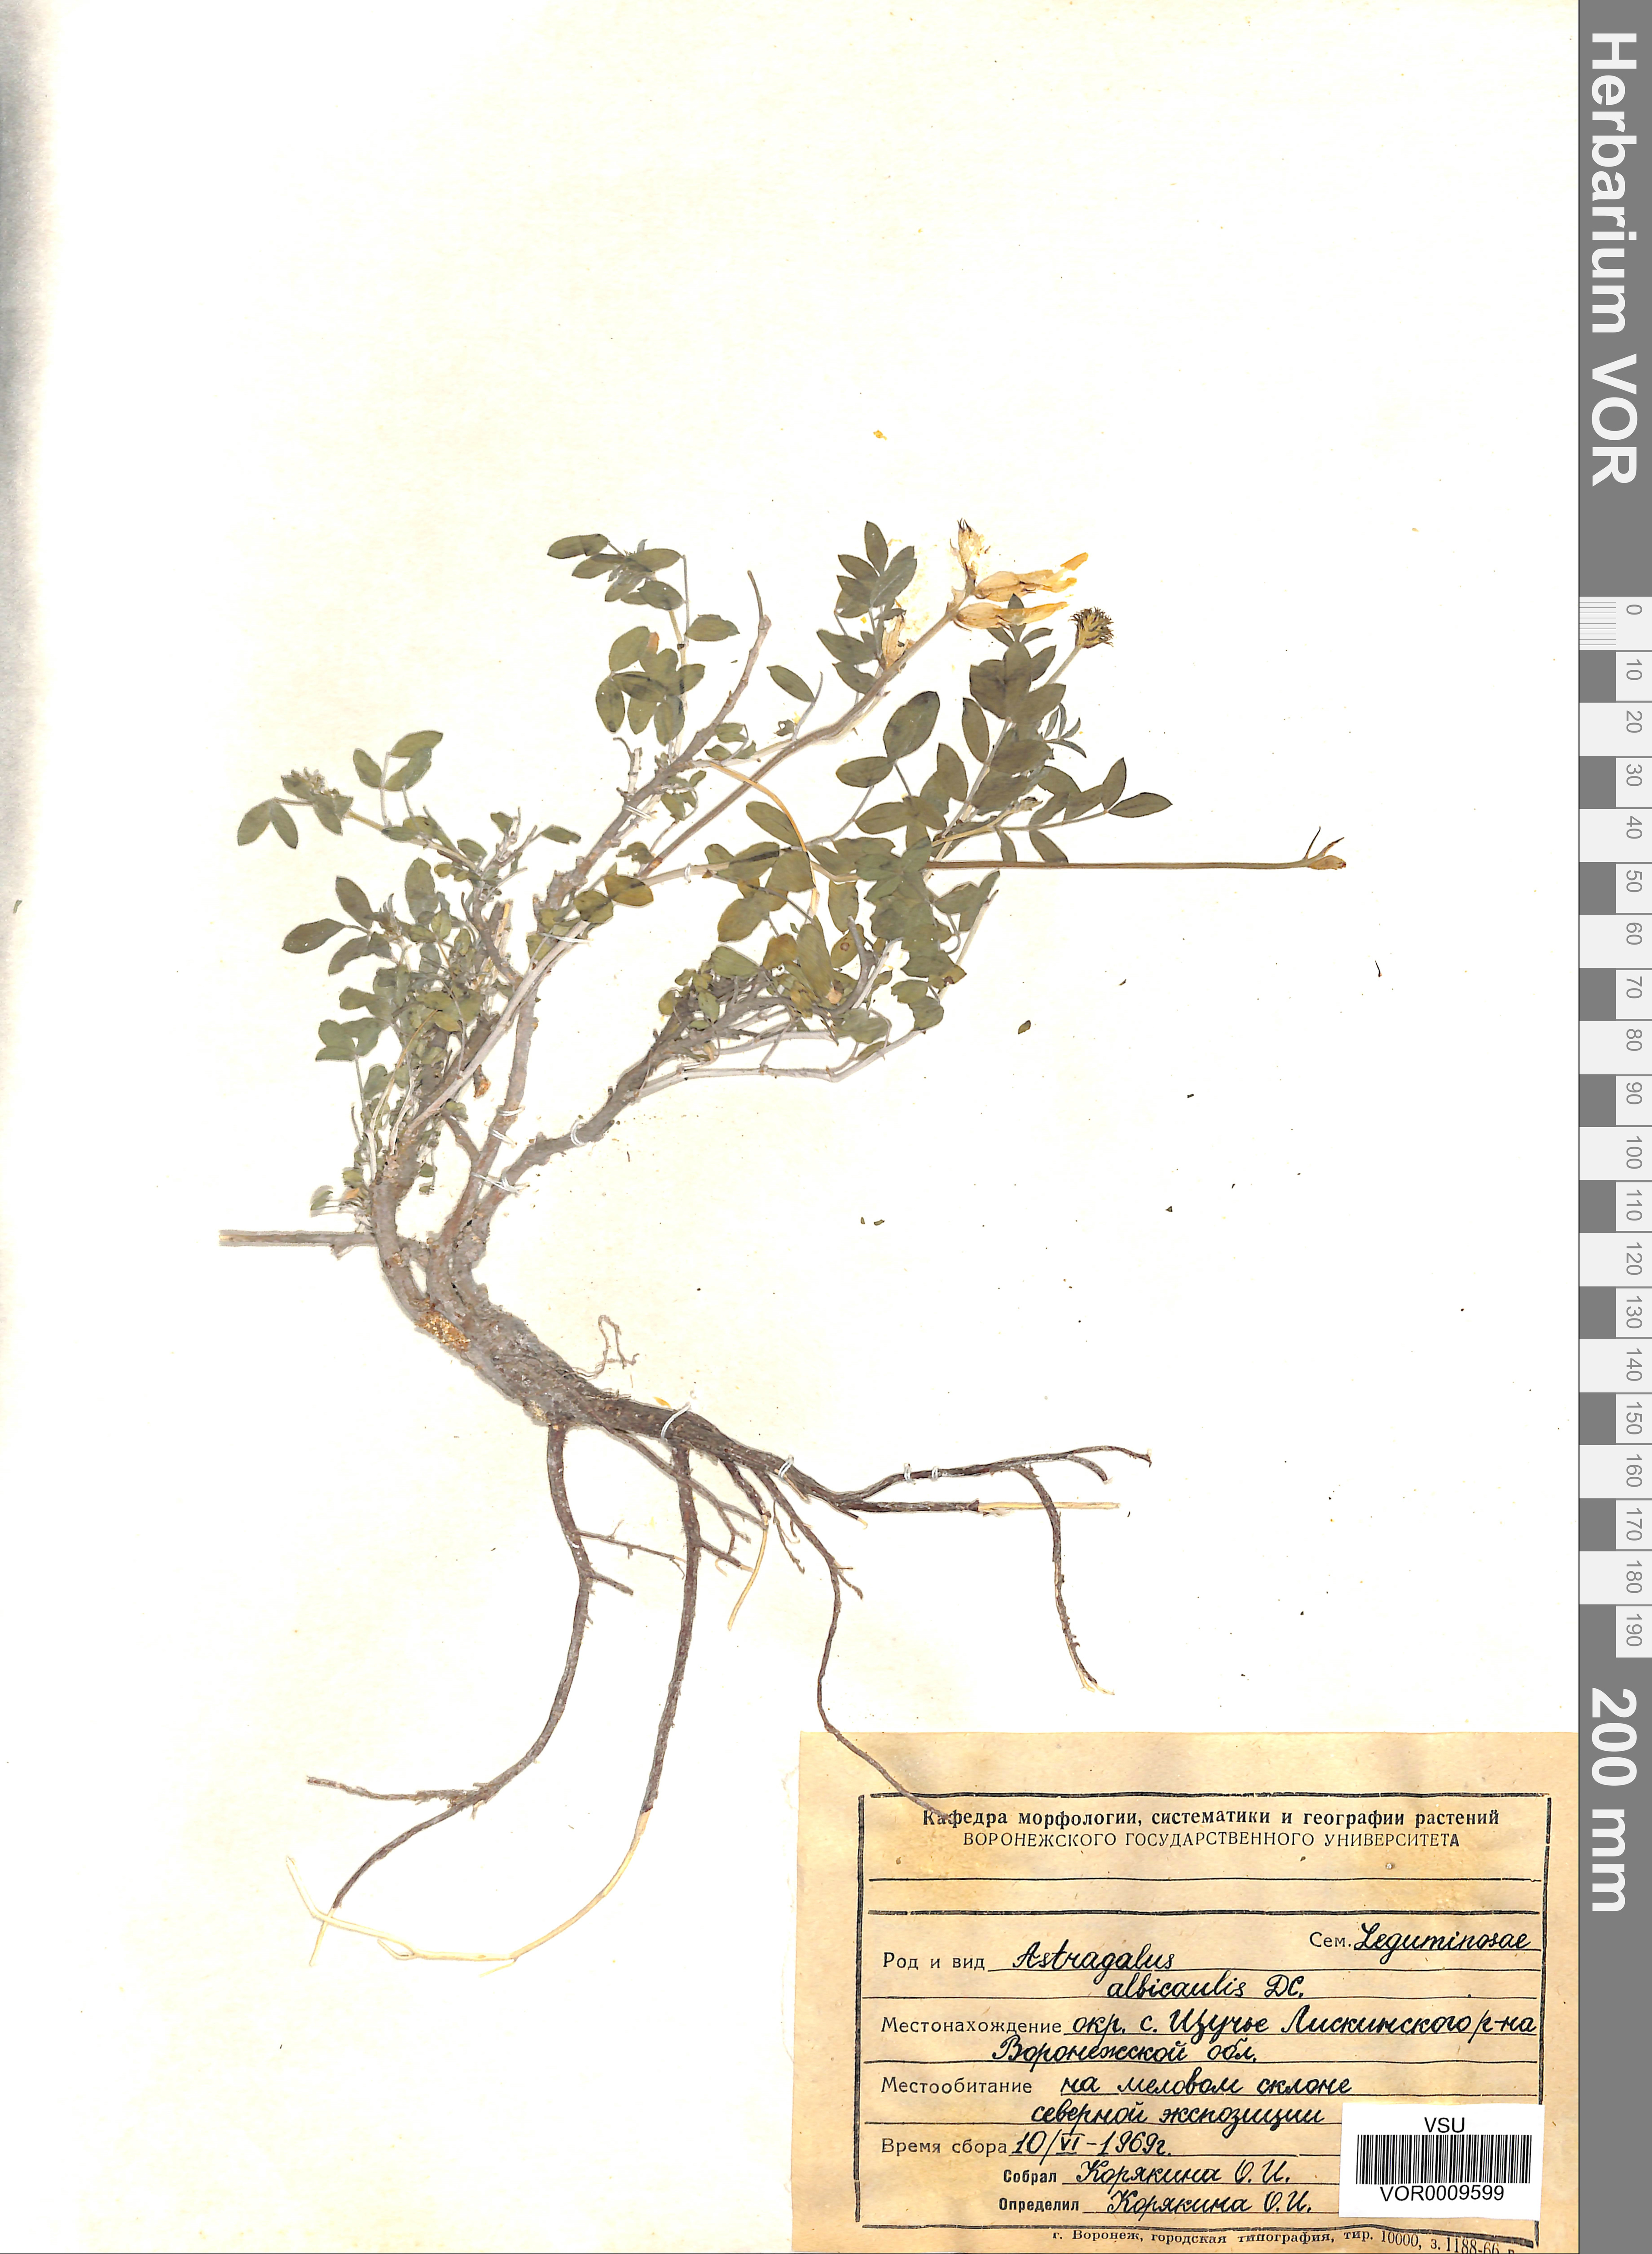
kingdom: Plantae
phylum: Tracheophyta
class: Magnoliopsida
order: Fabales
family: Fabaceae
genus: Astragalus
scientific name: Astragalus albicaulis
